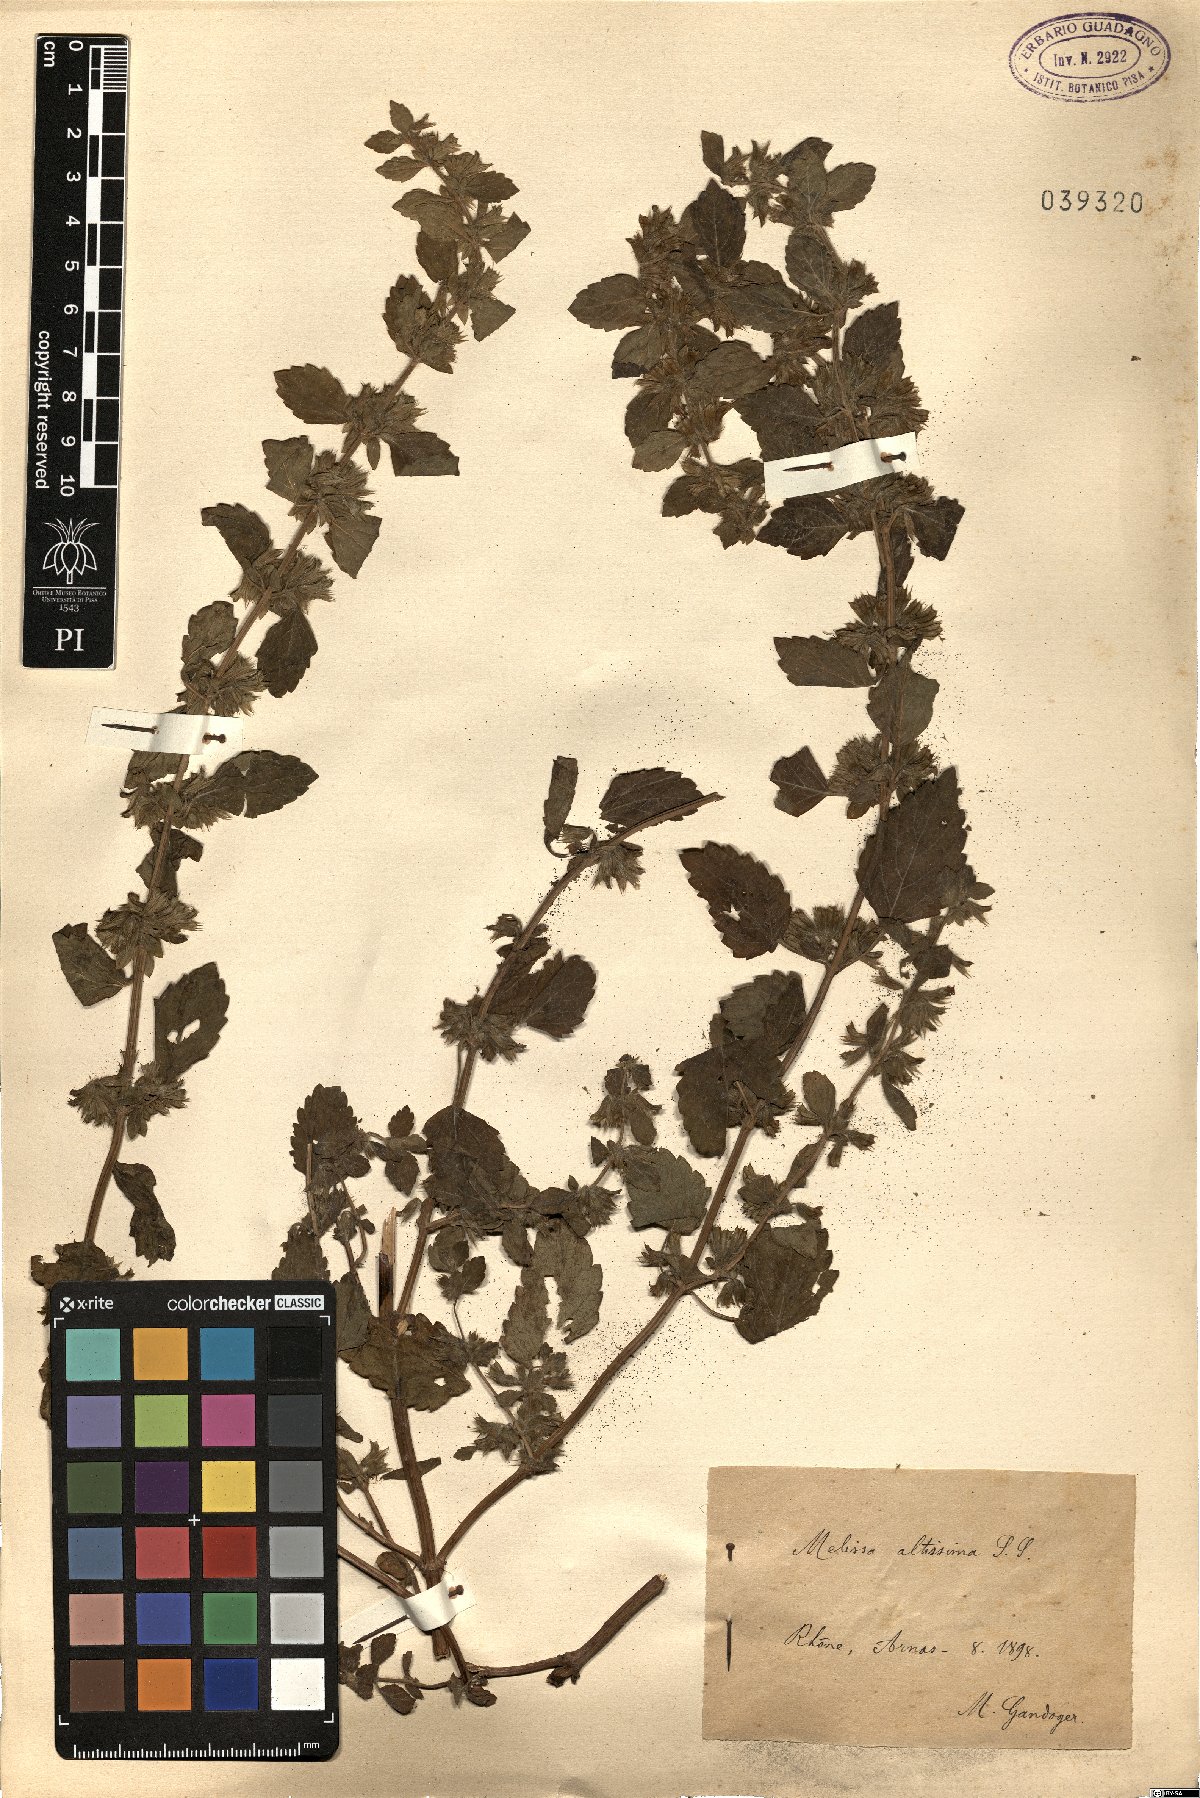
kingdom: Plantae
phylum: Tracheophyta
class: Magnoliopsida
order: Lamiales
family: Lamiaceae
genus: Melissa
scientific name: Melissa officinalis
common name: Balm
